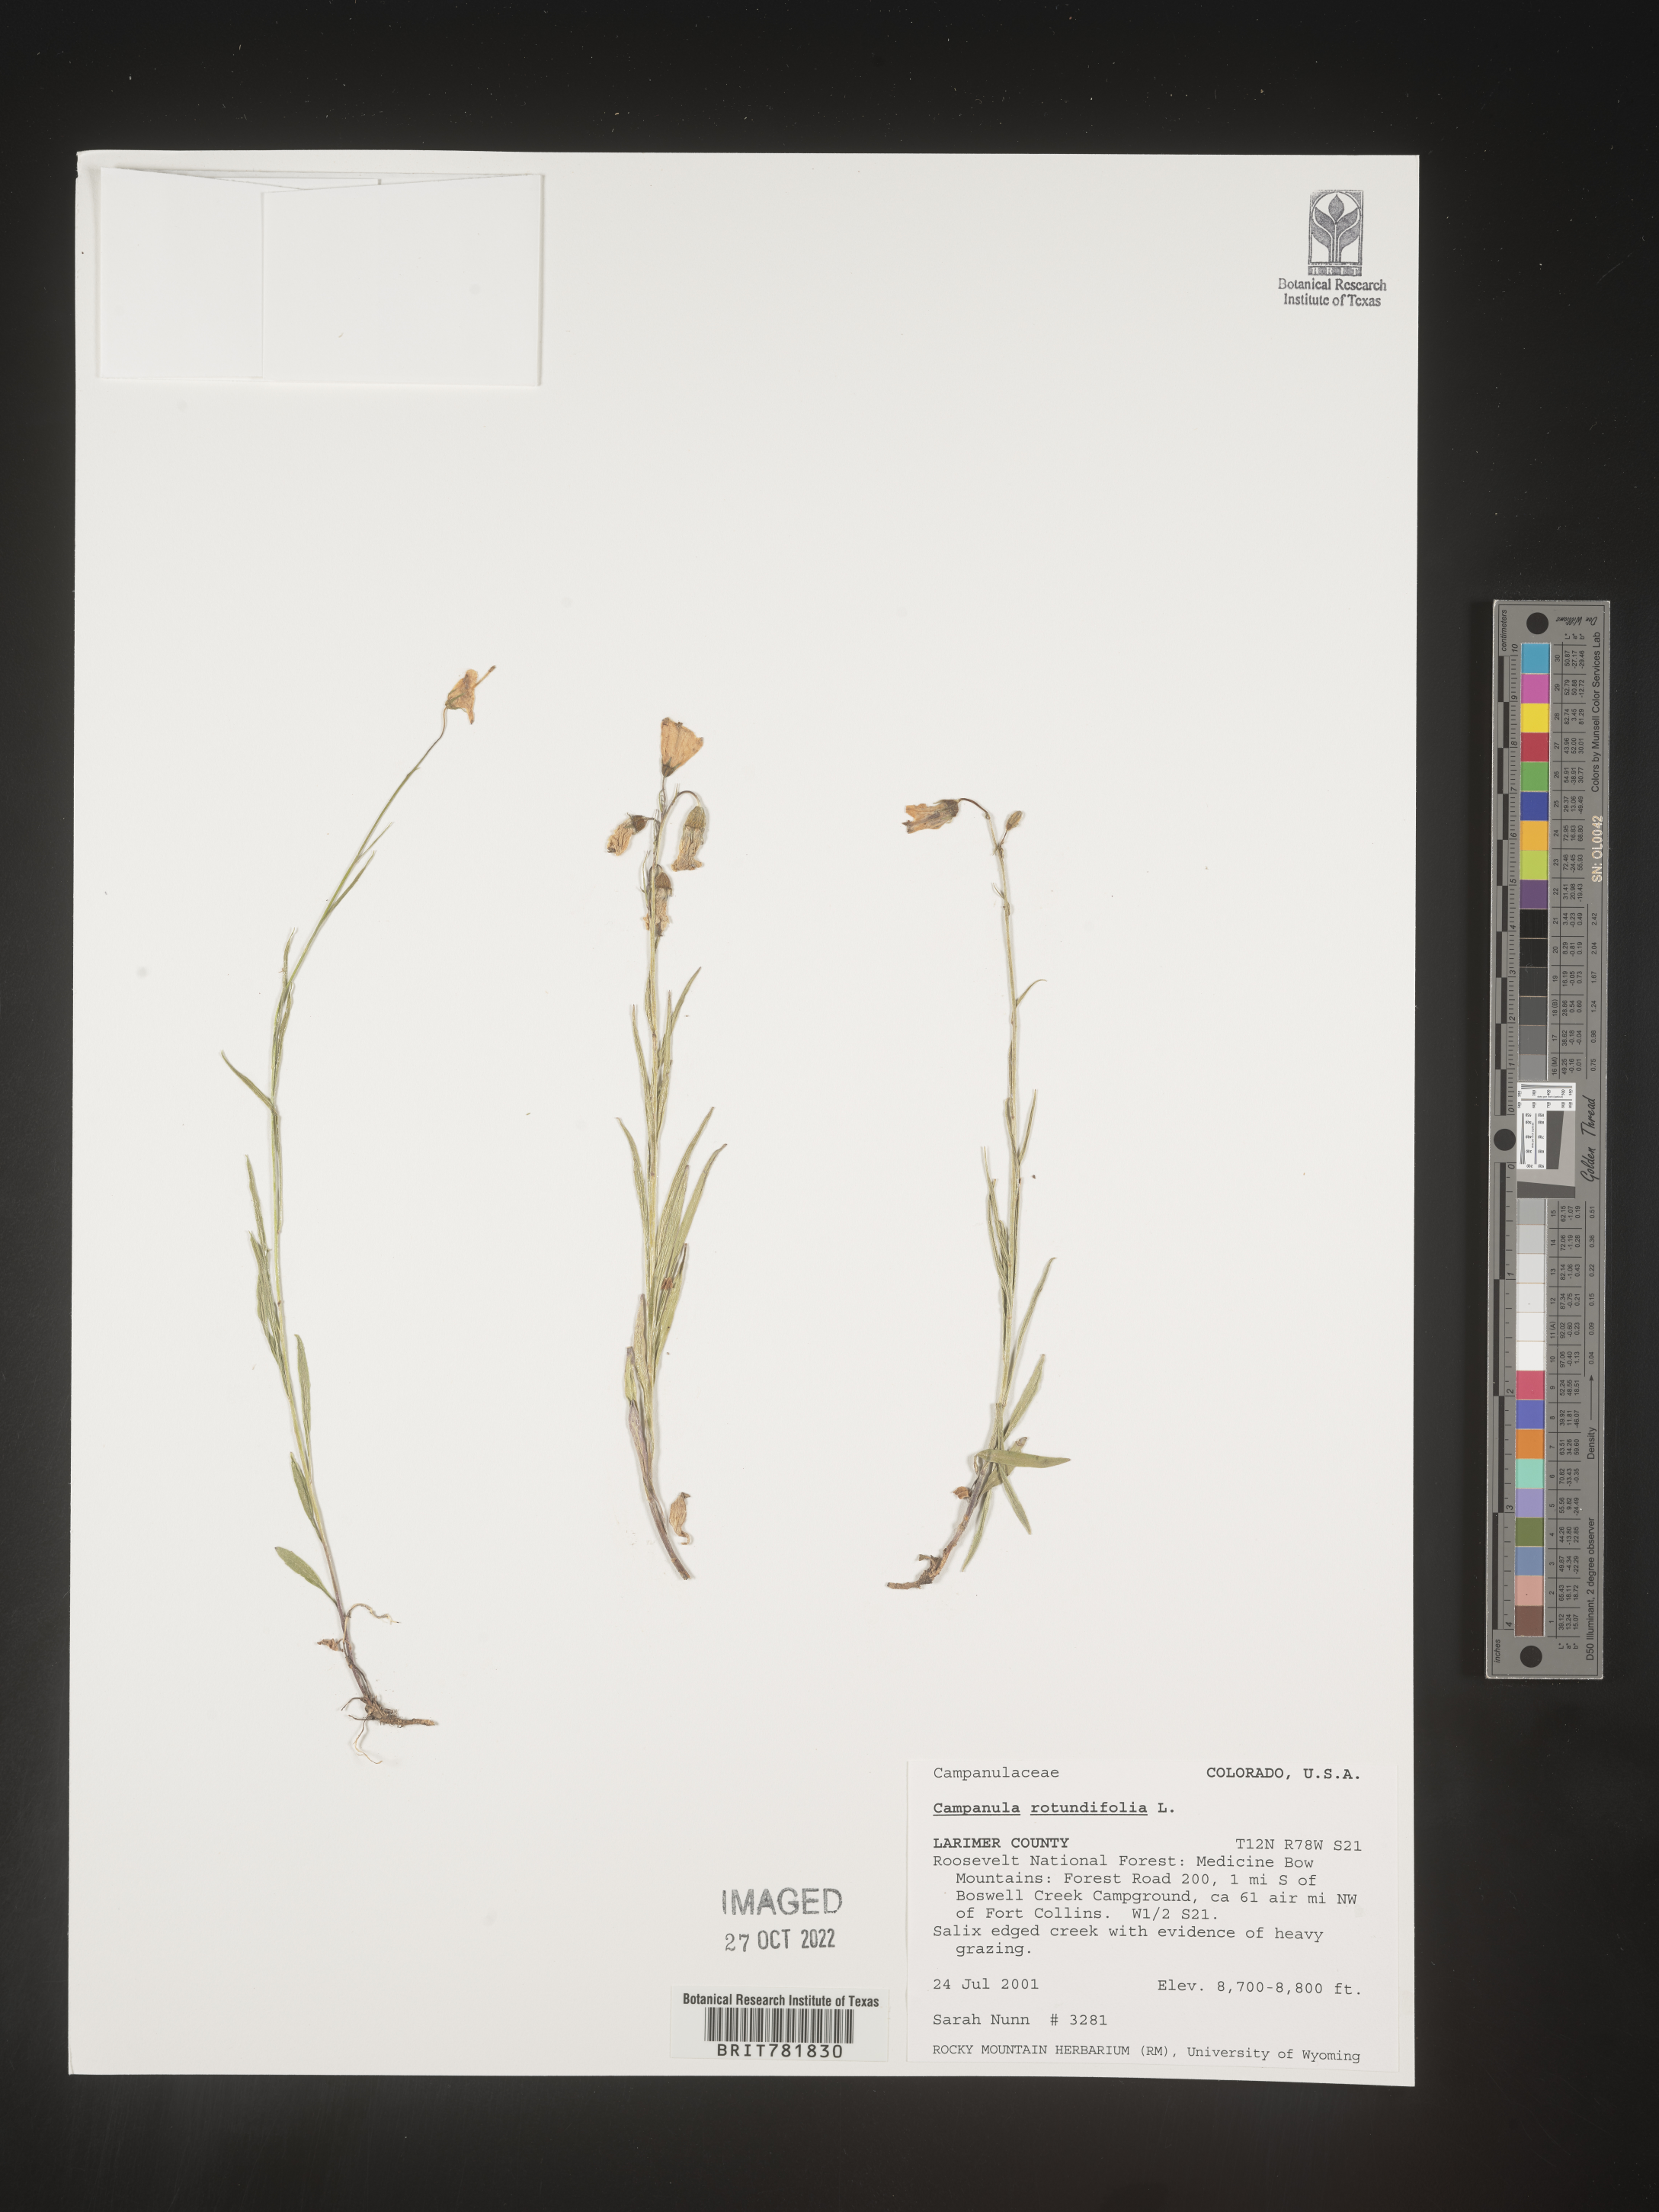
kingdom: Plantae
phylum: Tracheophyta
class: Magnoliopsida
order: Asterales
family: Campanulaceae
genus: Campanula
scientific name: Campanula rotundifolia
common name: Harebell
